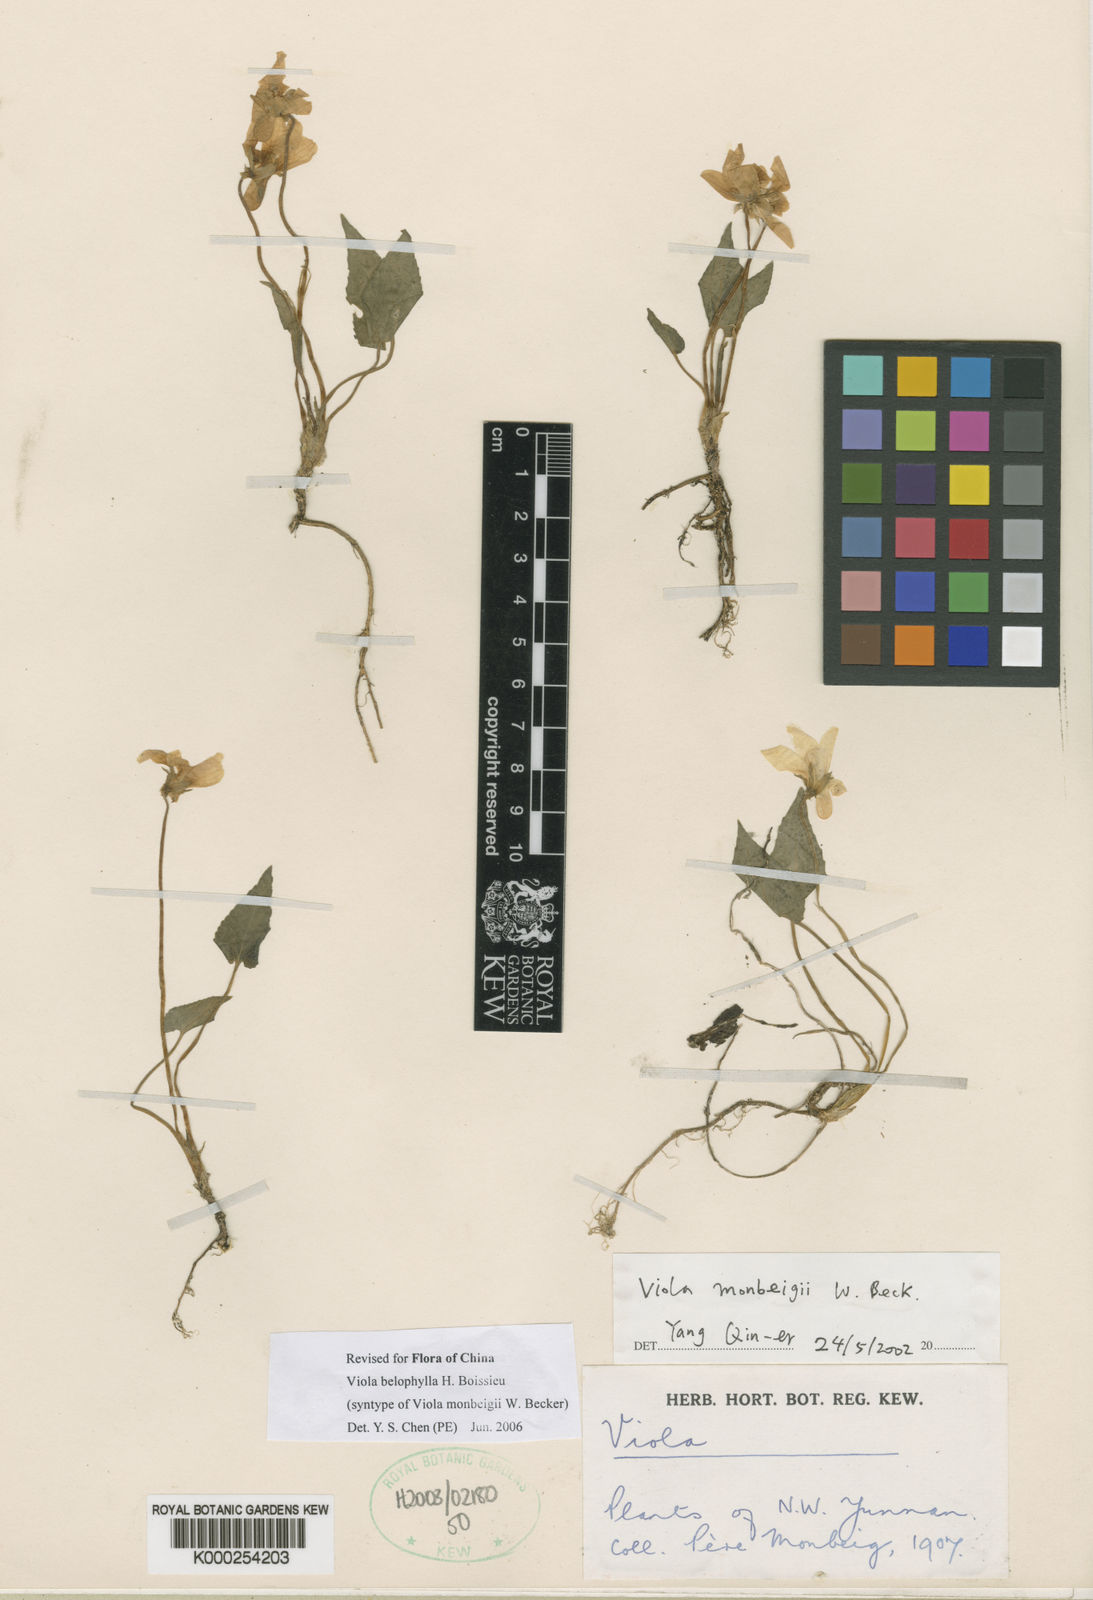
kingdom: Plantae
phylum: Tracheophyta
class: Magnoliopsida
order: Malpighiales
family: Violaceae
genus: Viola
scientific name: Viola belophylla
